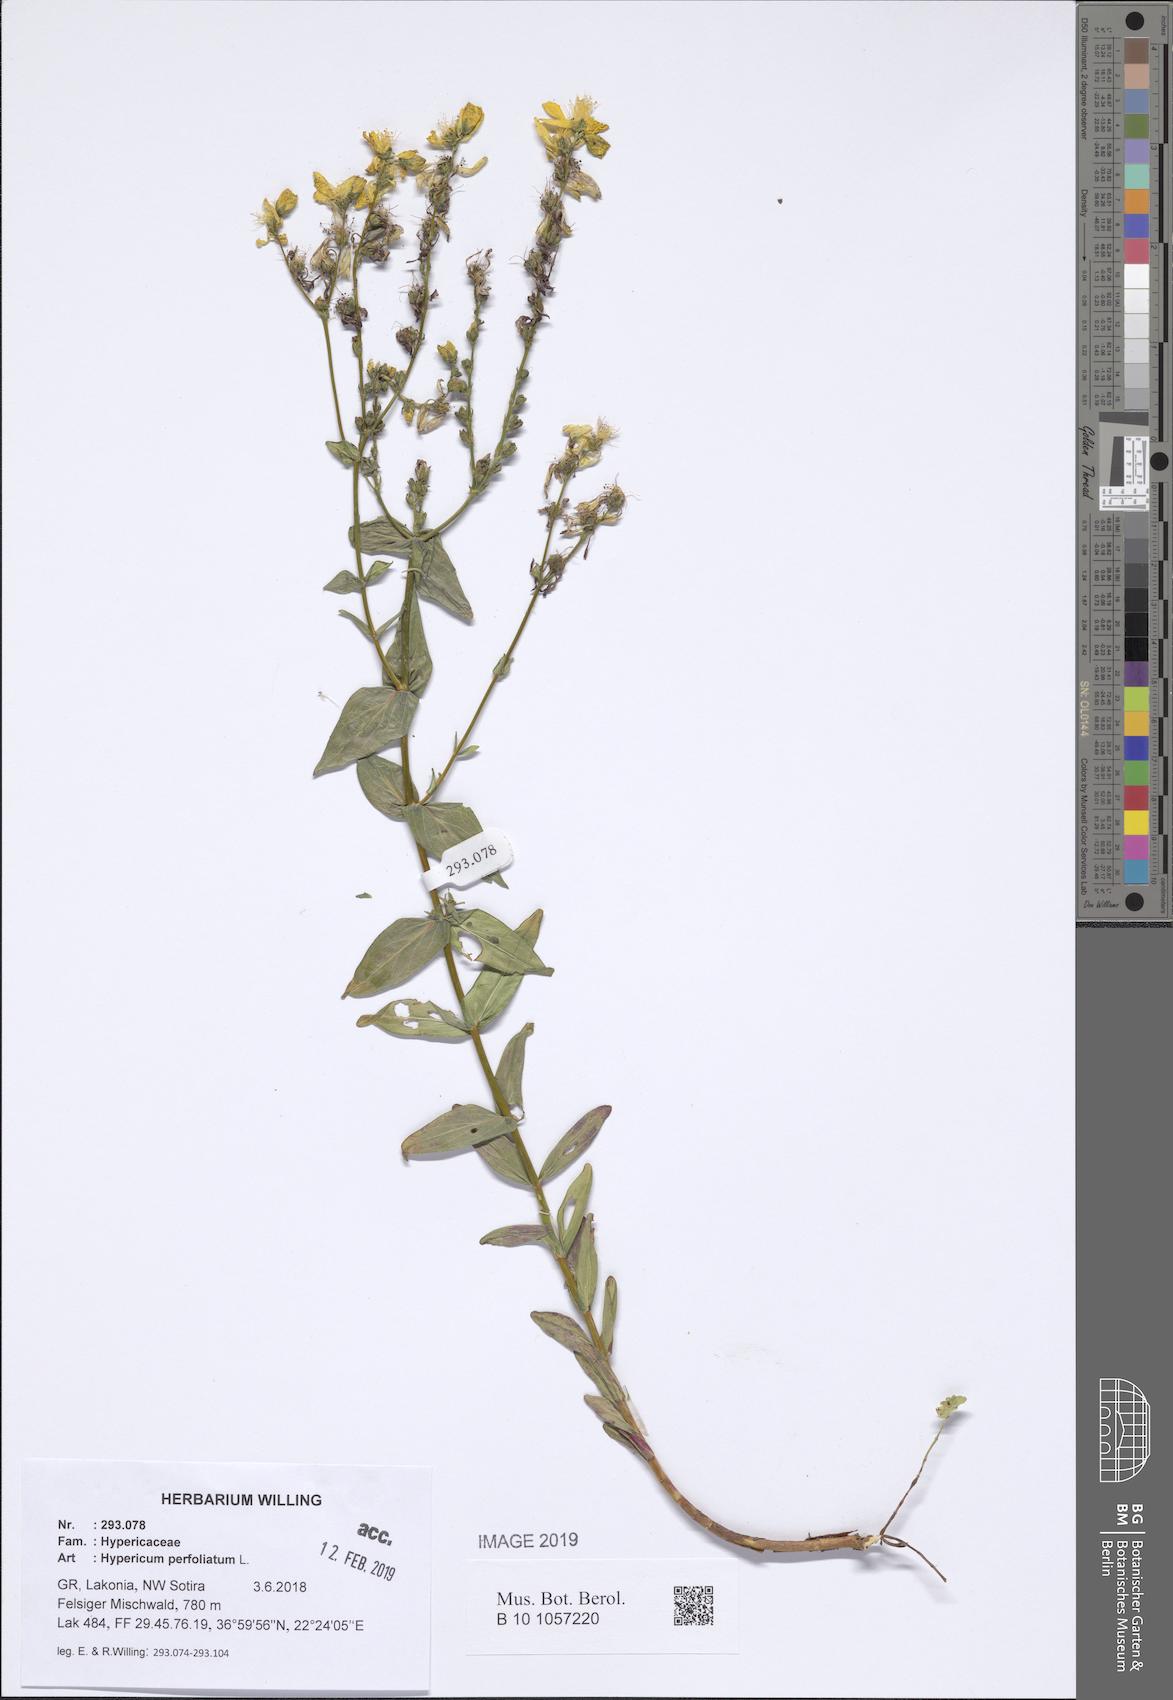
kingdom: Plantae
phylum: Tracheophyta
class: Magnoliopsida
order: Malpighiales
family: Hypericaceae
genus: Hypericum
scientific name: Hypericum perfoliatum
